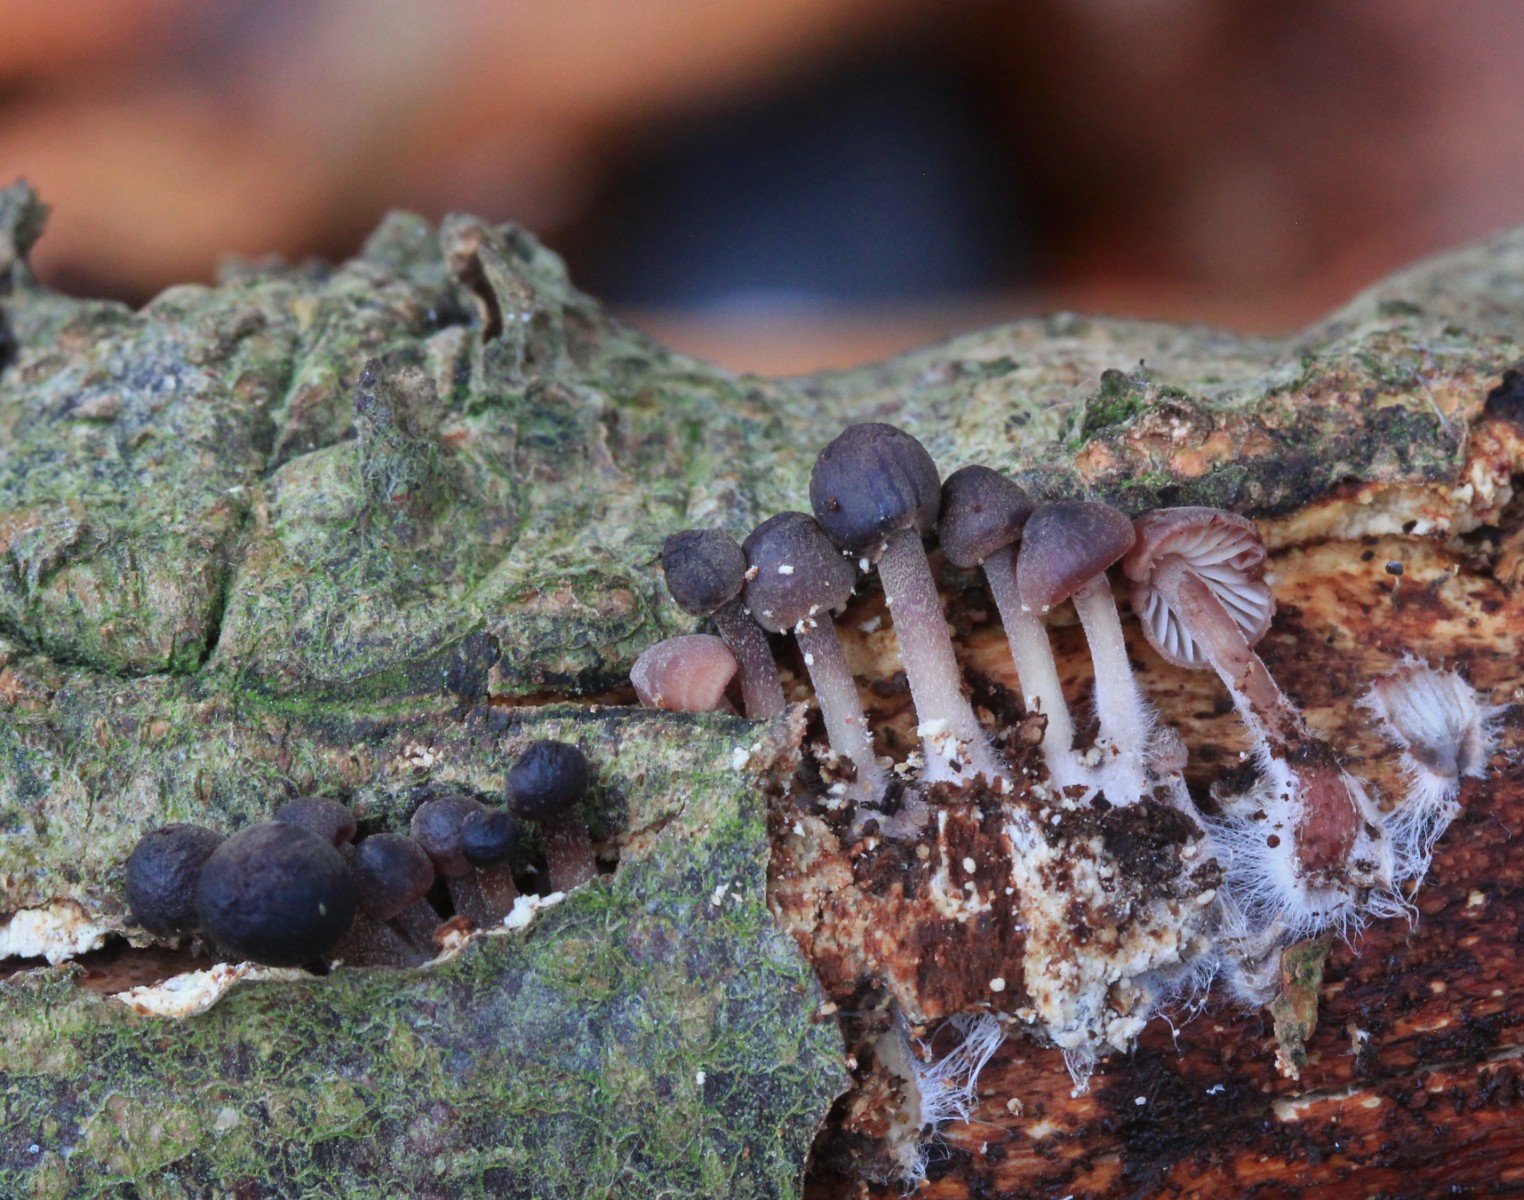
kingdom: Fungi
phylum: Basidiomycota
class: Agaricomycetes
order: Agaricales
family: Mycenaceae
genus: Mycena
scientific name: Mycena haematopus
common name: blødende huesvamp
